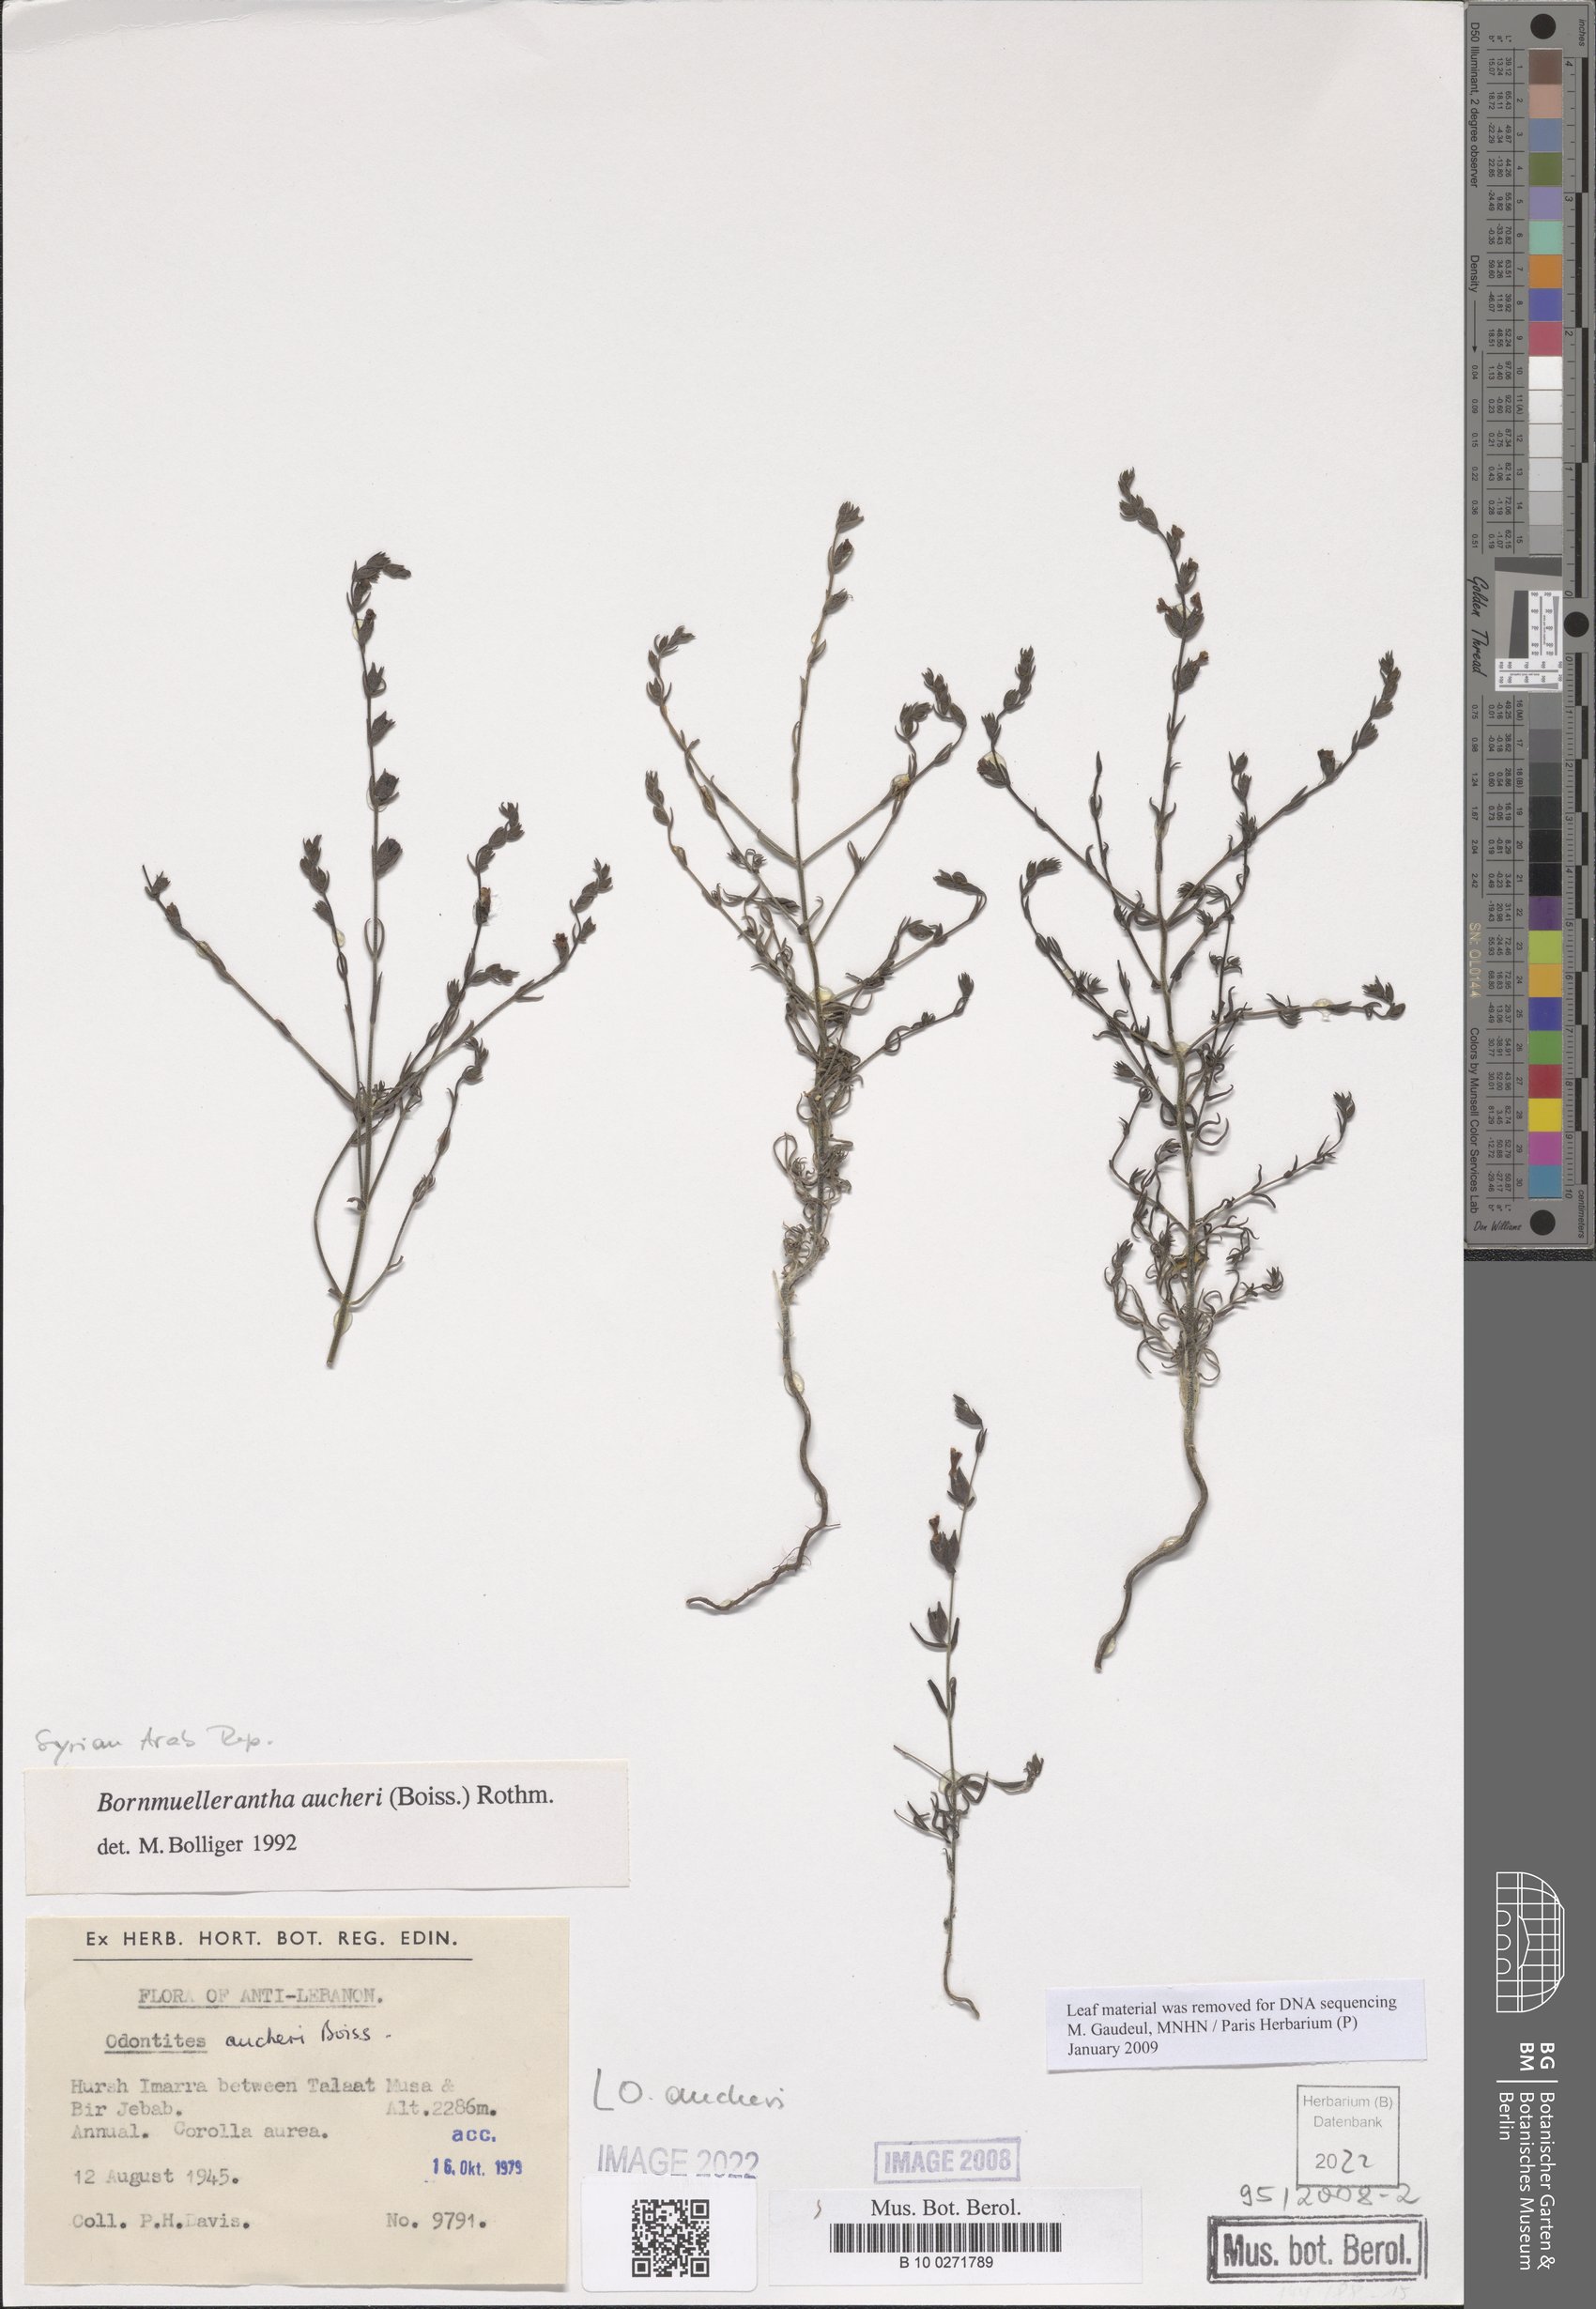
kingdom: Plantae
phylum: Tracheophyta
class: Magnoliopsida
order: Lamiales
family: Orobanchaceae
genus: Odontites
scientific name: Odontites aucheri
